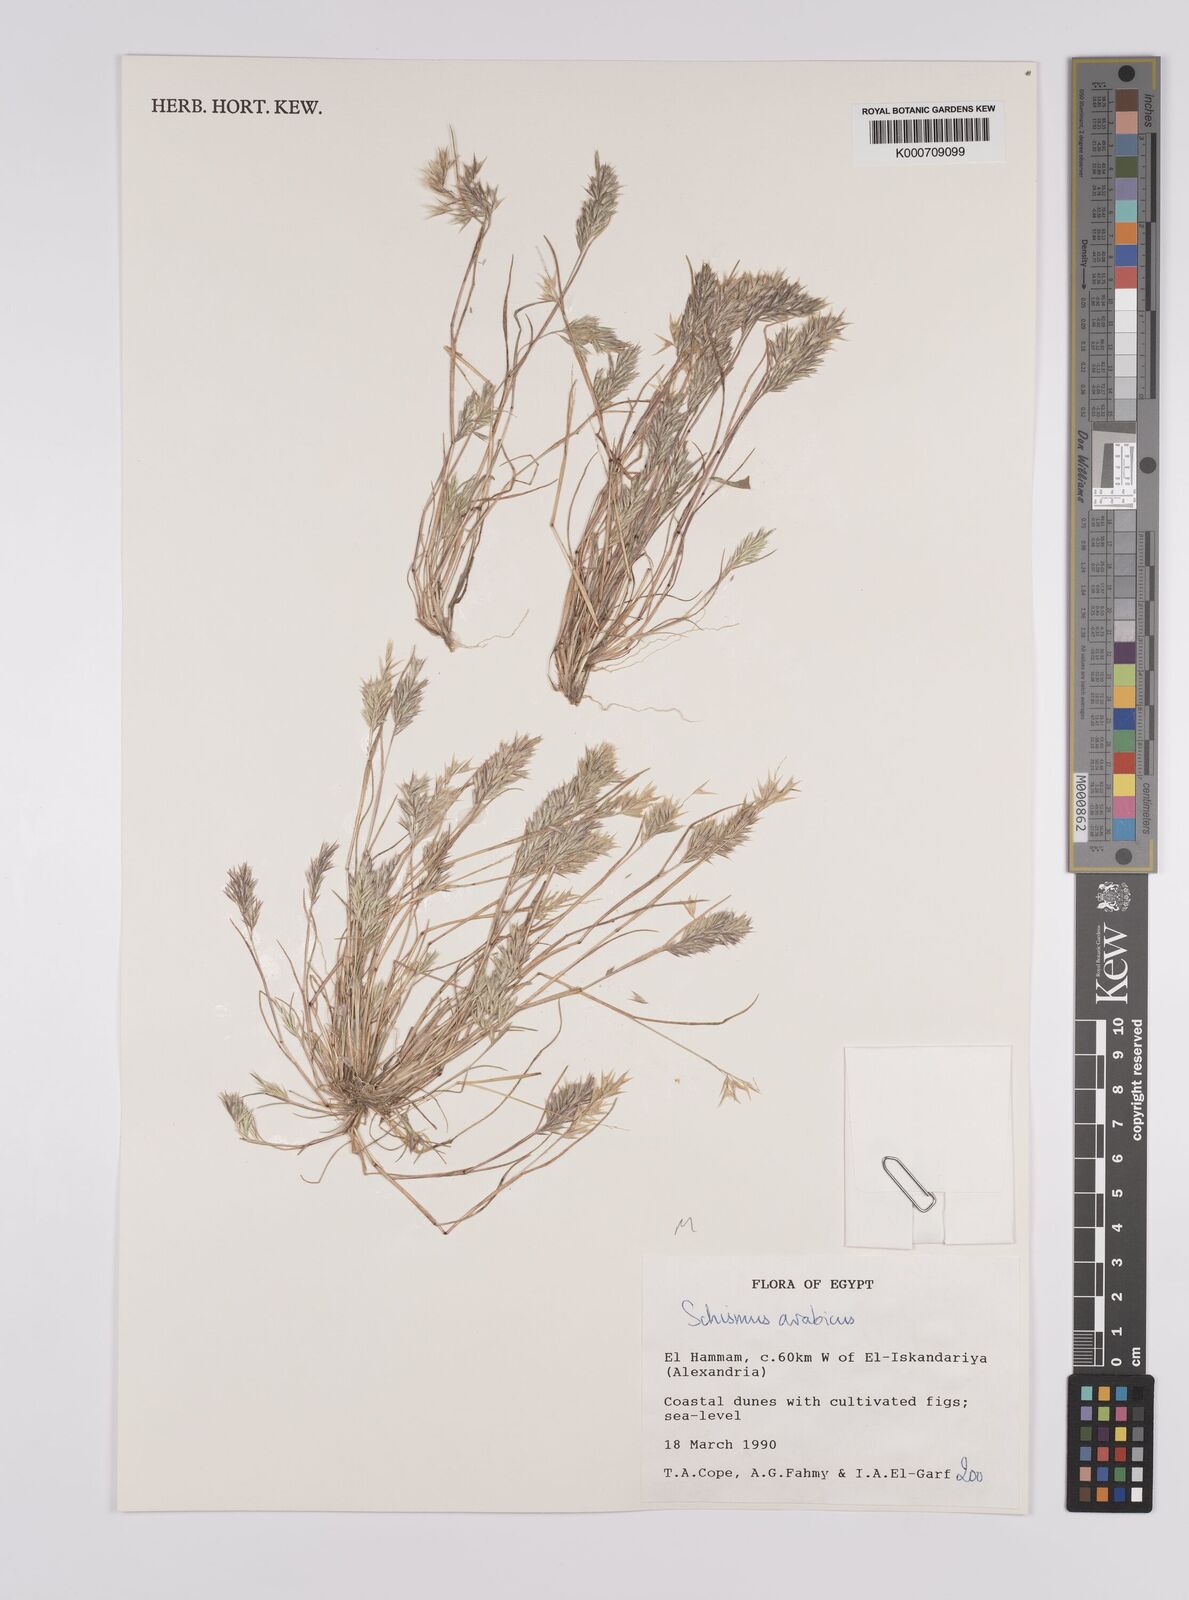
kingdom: Plantae
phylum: Tracheophyta
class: Liliopsida
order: Poales
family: Poaceae
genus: Schismus
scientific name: Schismus arabicus
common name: Arabian schismus
